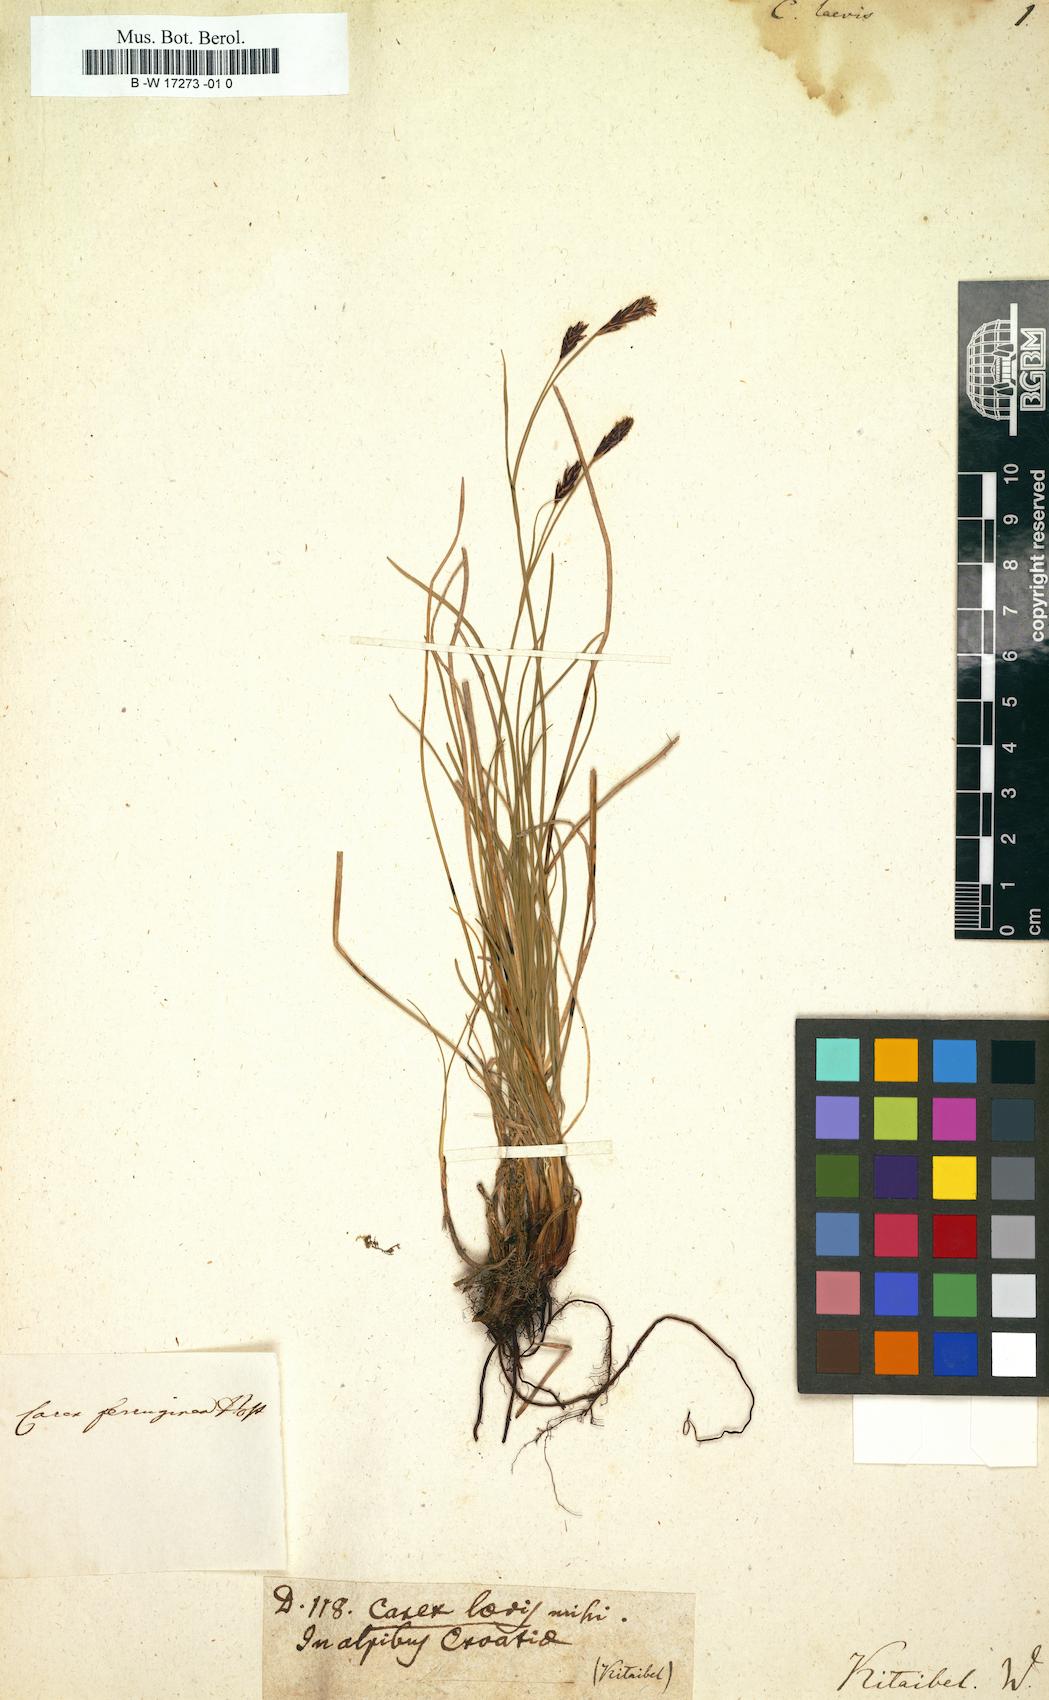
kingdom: Plantae
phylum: Tracheophyta
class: Liliopsida
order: Poales
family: Cyperaceae
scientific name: Cyperaceae
